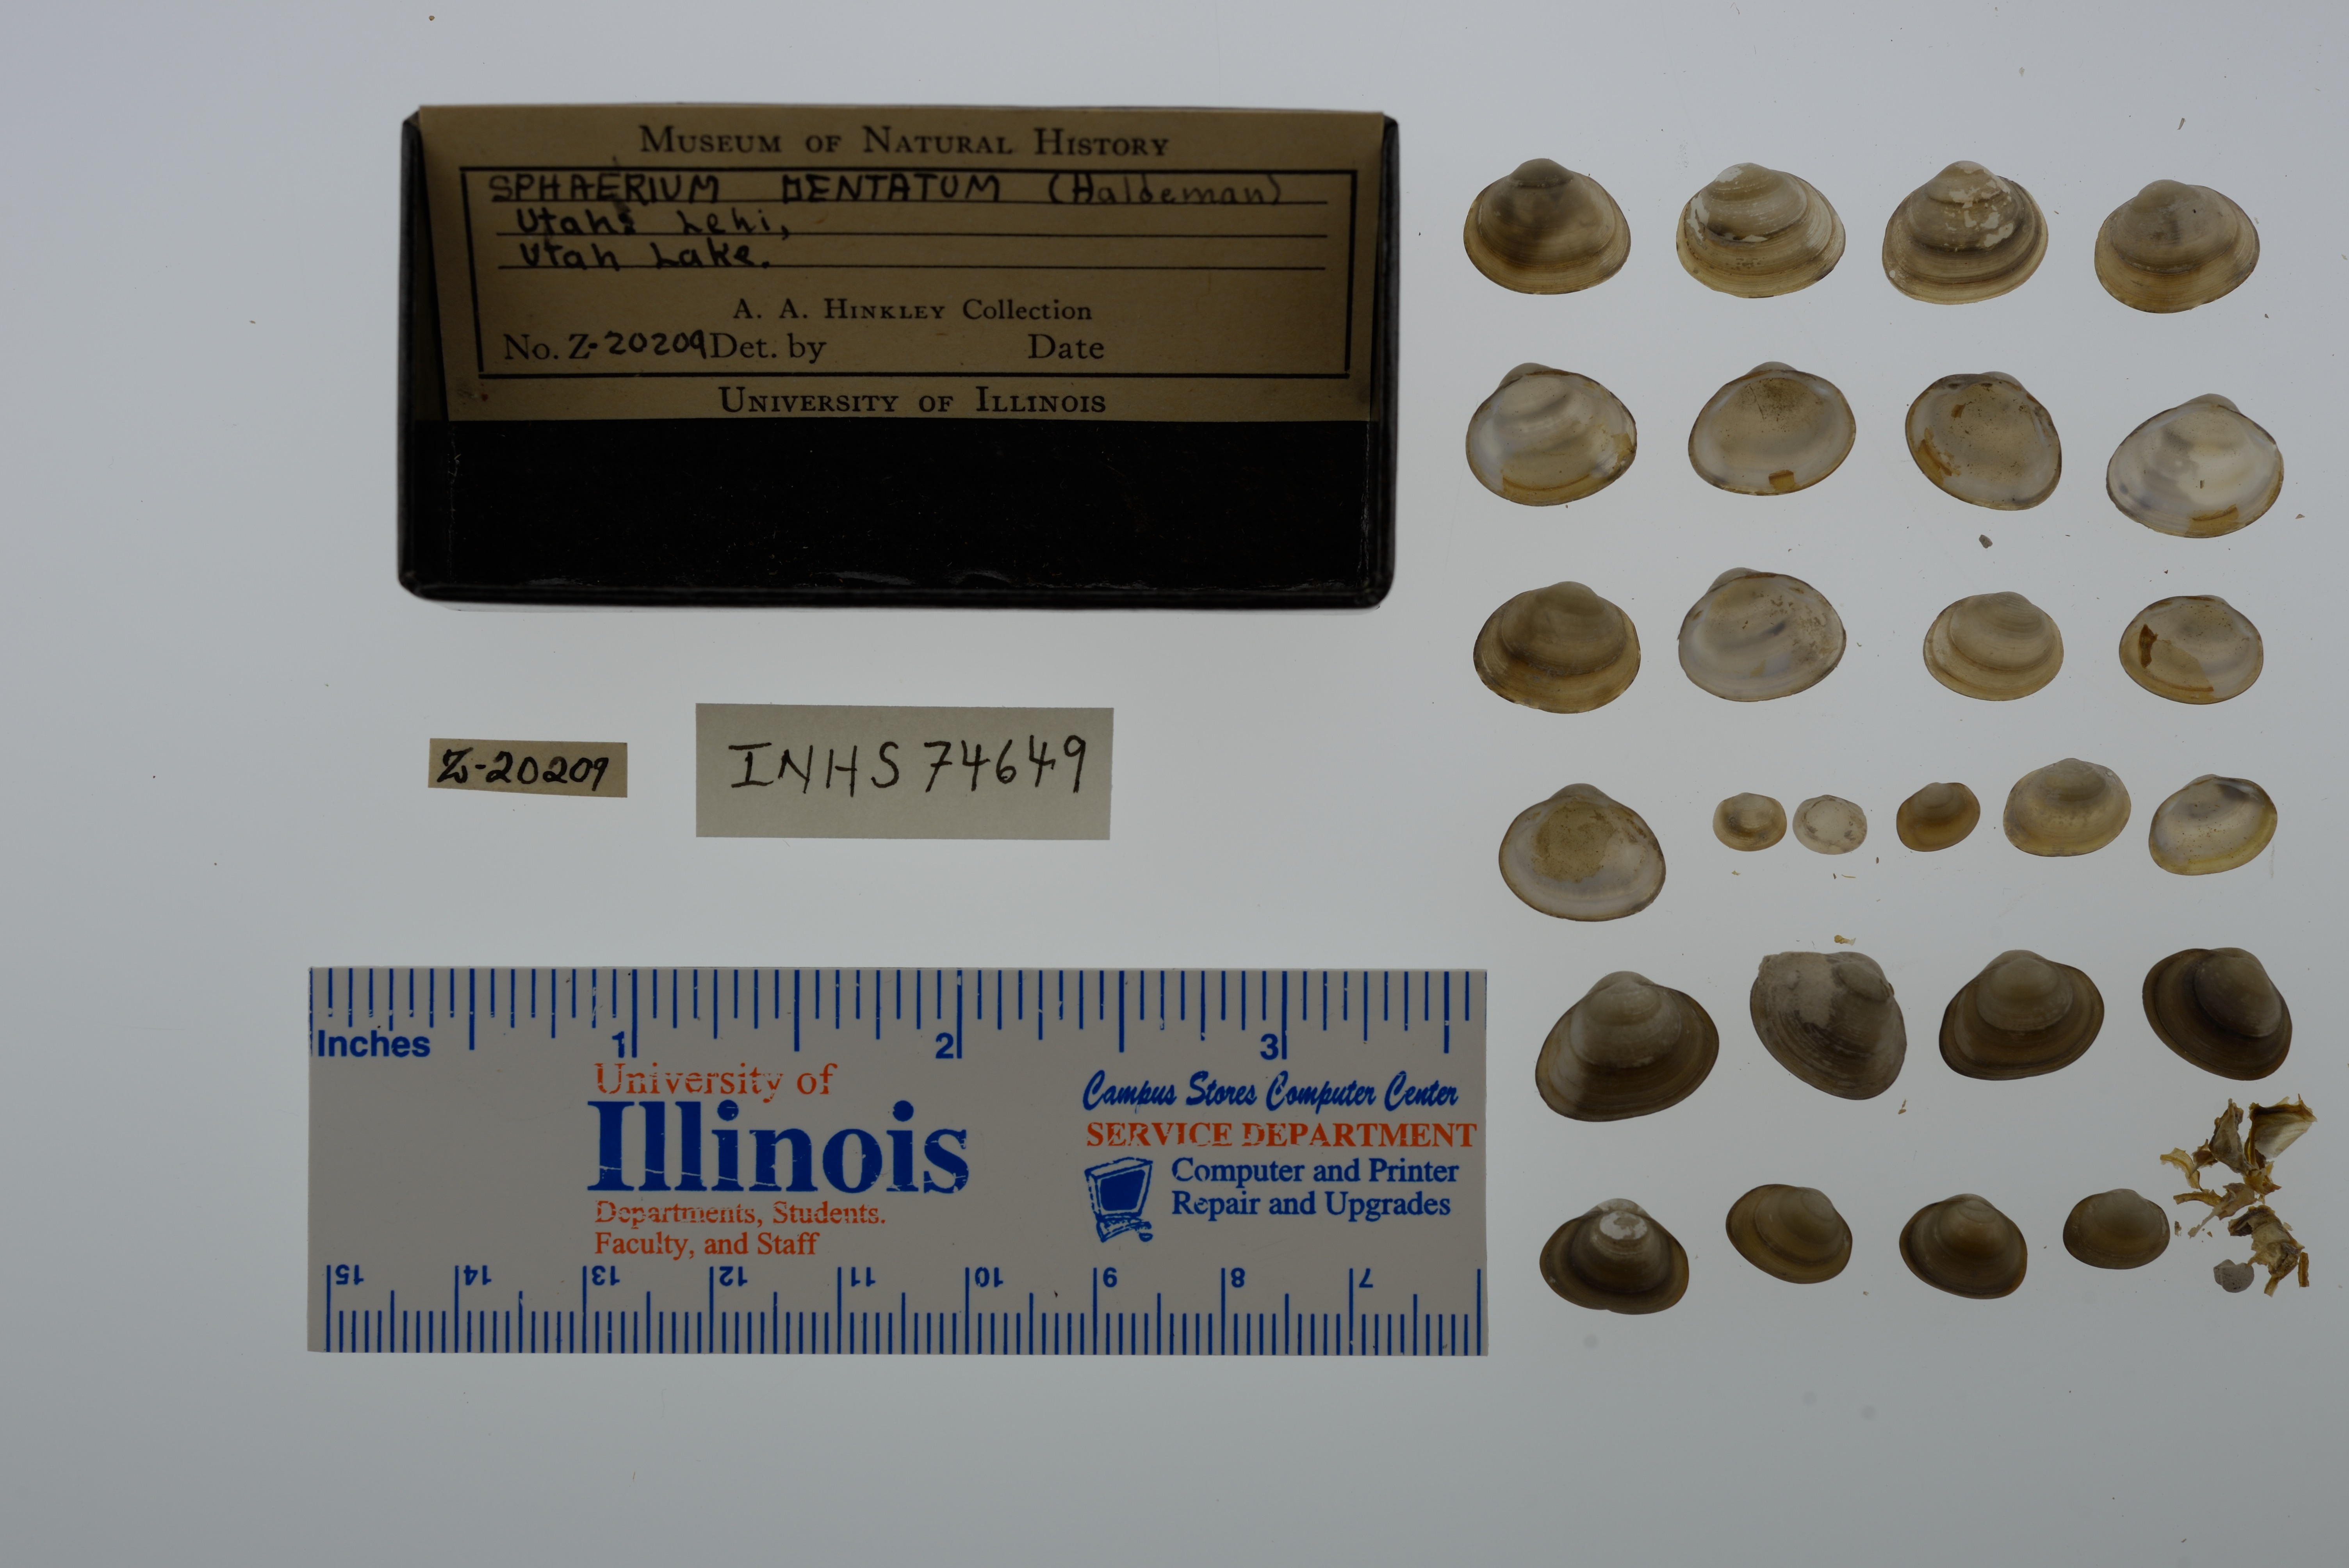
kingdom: Animalia
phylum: Mollusca
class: Bivalvia
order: Sphaeriida
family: Sphaeriidae
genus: Sphaerium
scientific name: Sphaerium striatinum
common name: Striated fingernailclam
